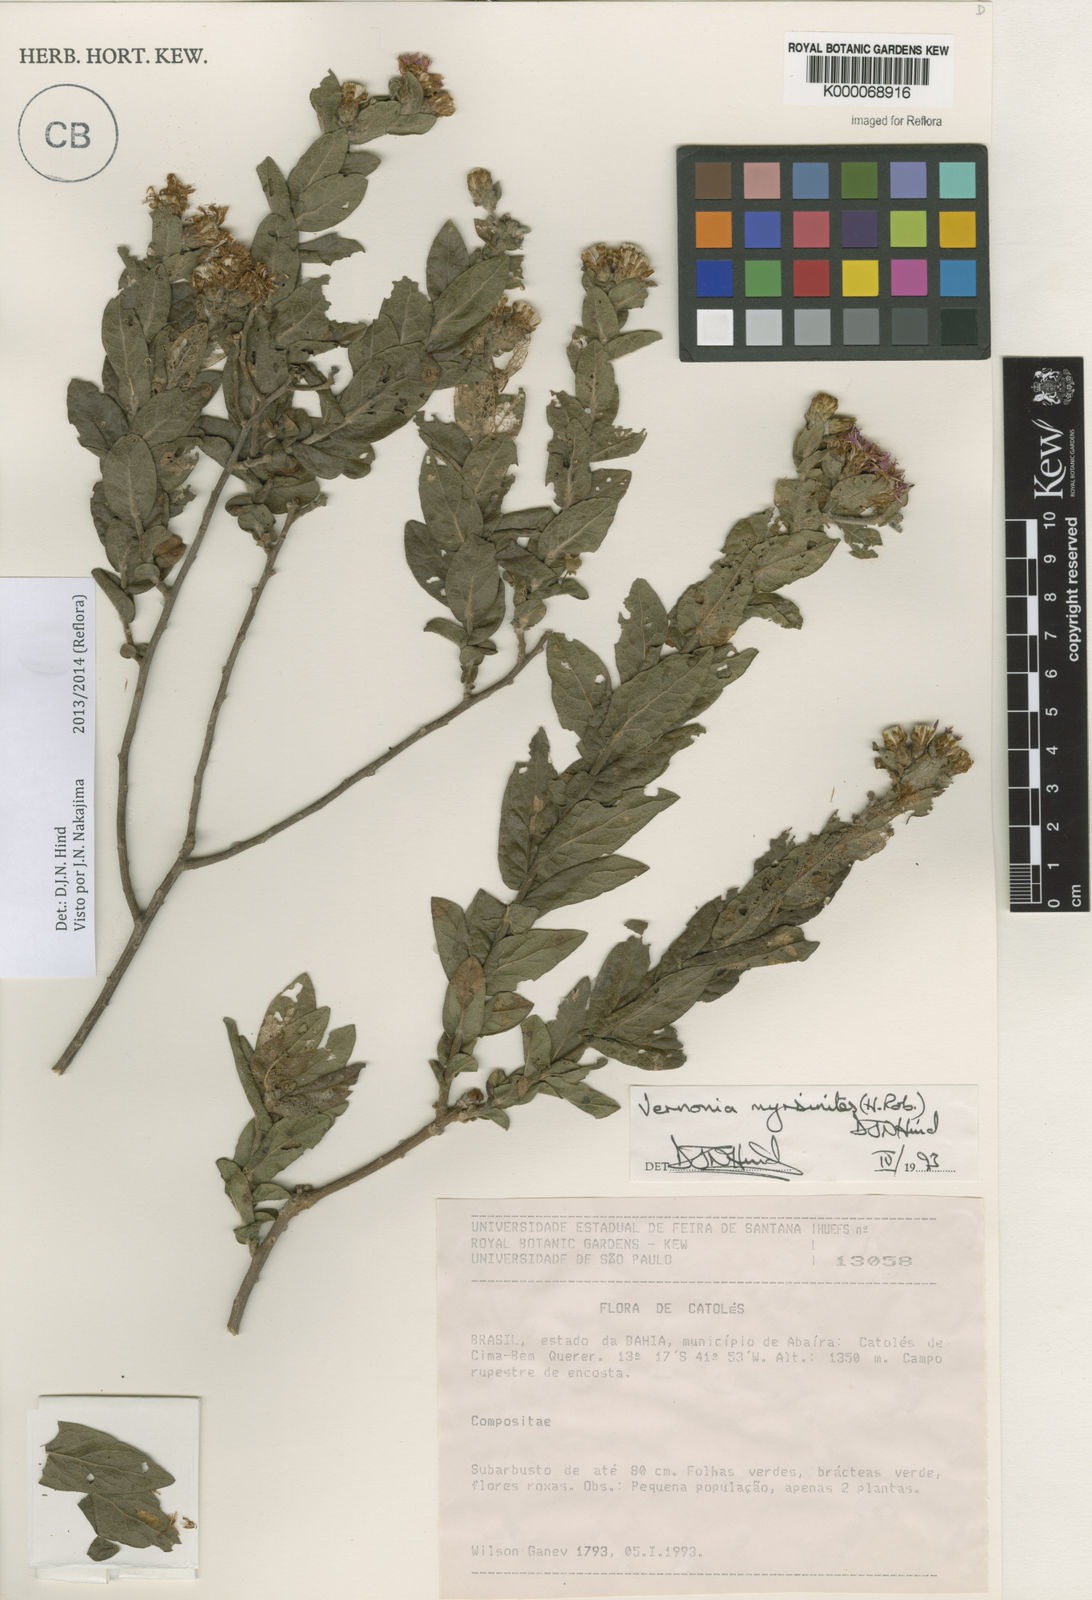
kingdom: Plantae
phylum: Tracheophyta
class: Magnoliopsida
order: Asterales
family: Asteraceae
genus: Lessingianthus
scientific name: Lessingianthus myrsinites
